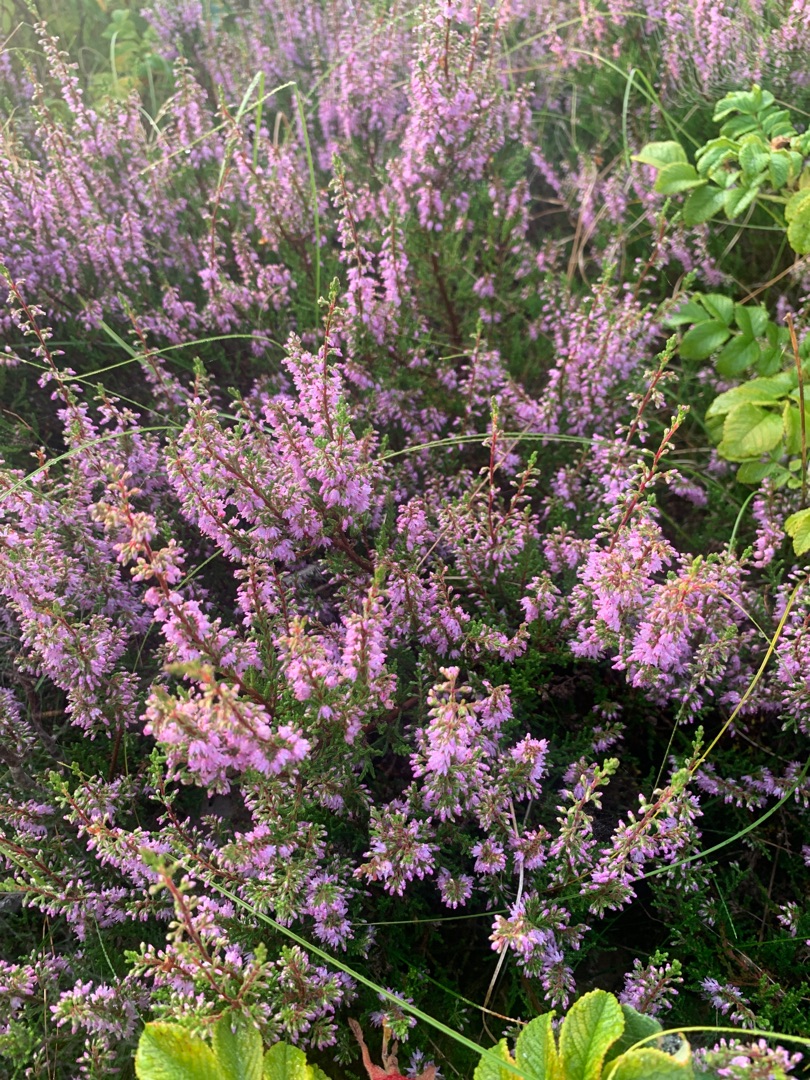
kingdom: Plantae
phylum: Tracheophyta
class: Magnoliopsida
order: Ericales
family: Ericaceae
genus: Calluna
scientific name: Calluna vulgaris
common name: Hedelyng
